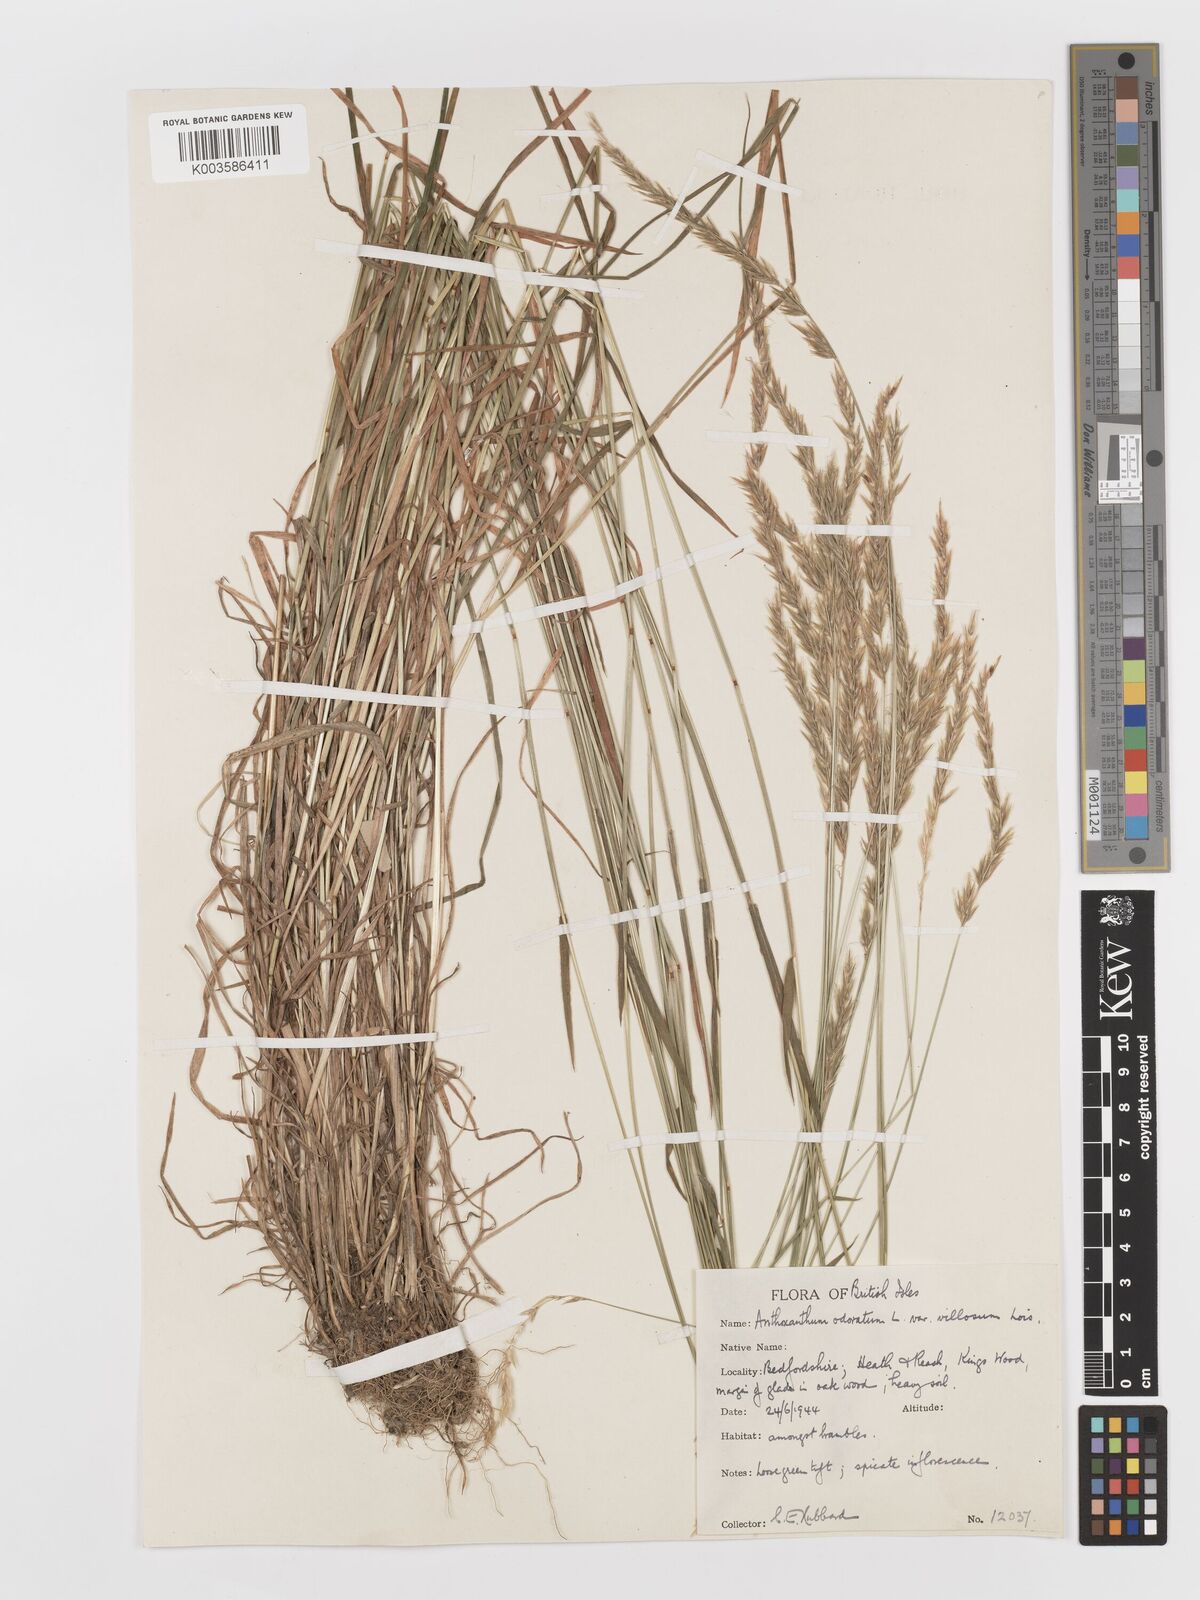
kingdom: Plantae
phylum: Tracheophyta
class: Liliopsida
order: Poales
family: Poaceae
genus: Anthoxanthum
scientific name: Anthoxanthum odoratum
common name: Sweet vernalgrass
